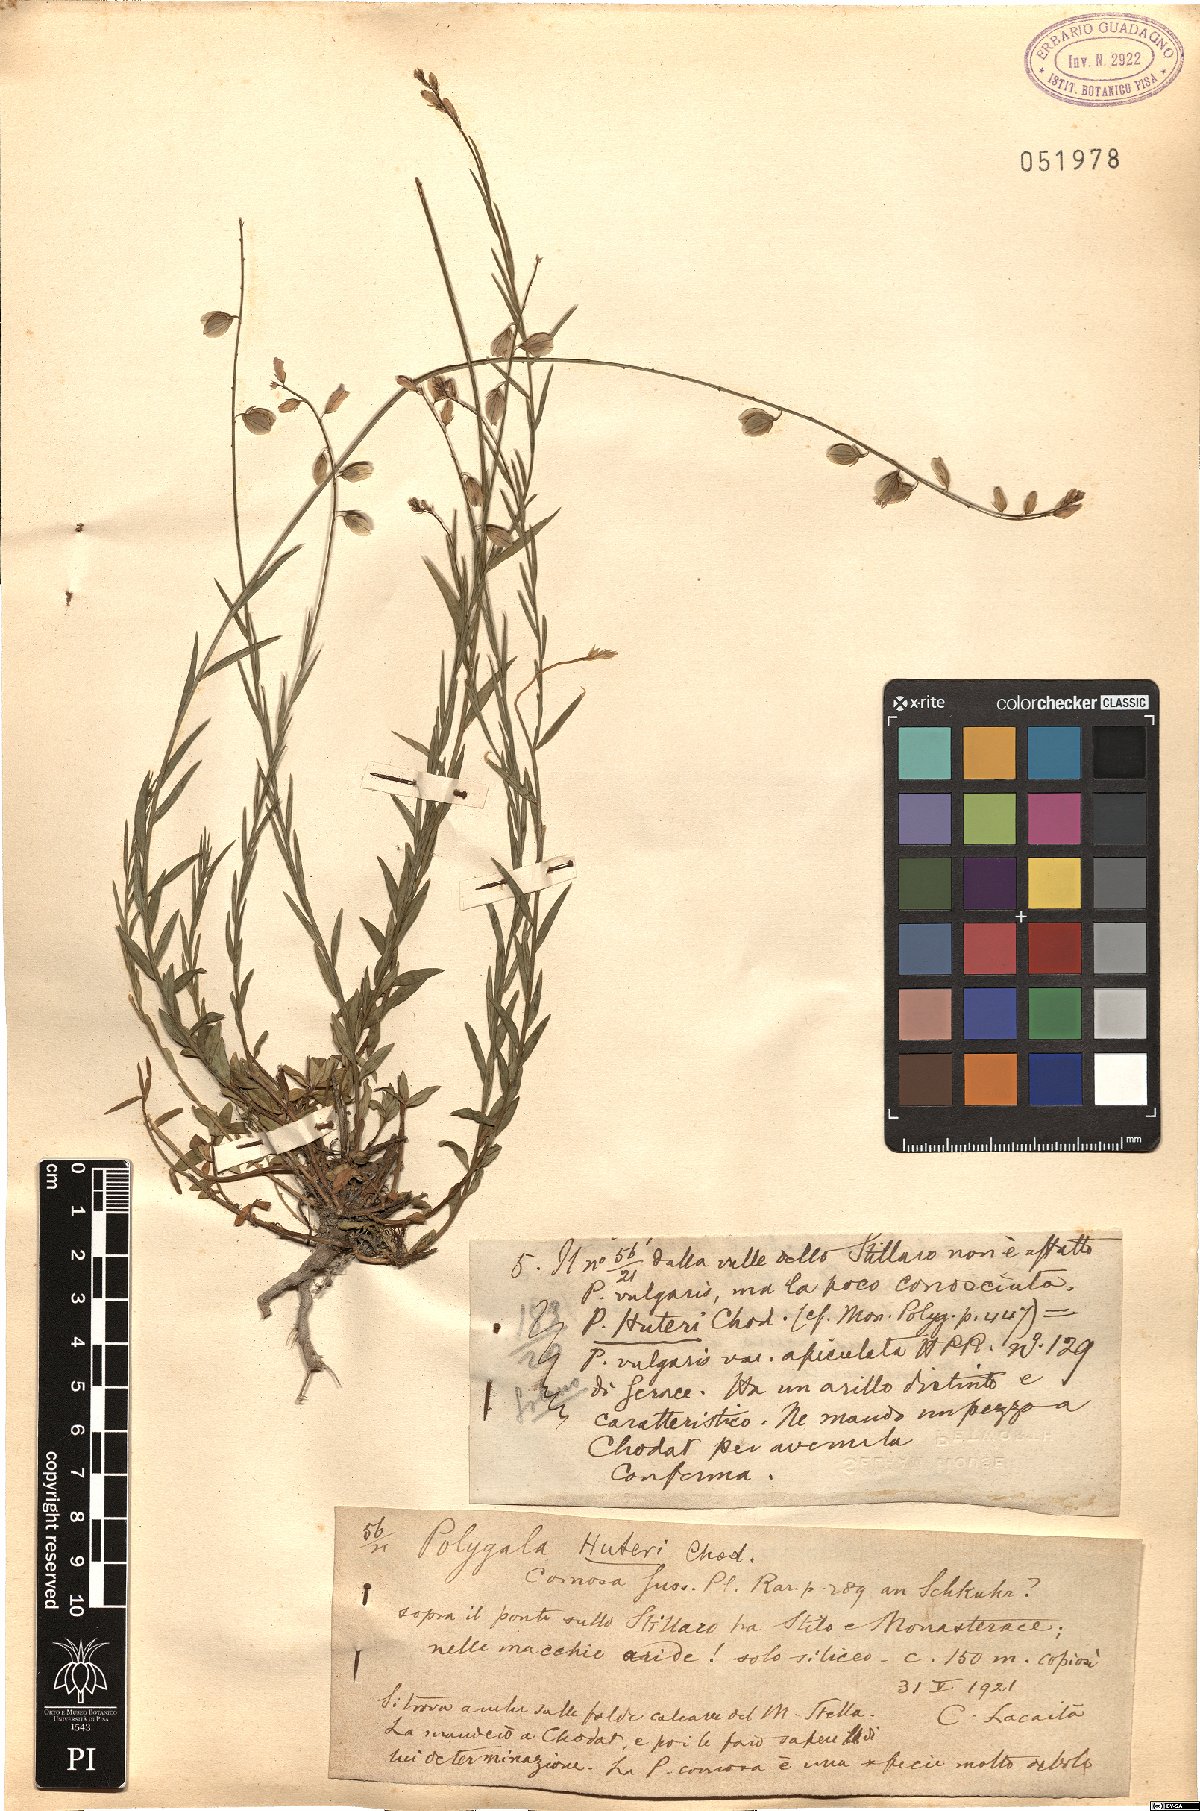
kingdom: Plantae
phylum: Tracheophyta
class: Magnoliopsida
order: Fabales
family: Polygalaceae
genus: Polygala
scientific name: Polygala apiculata
